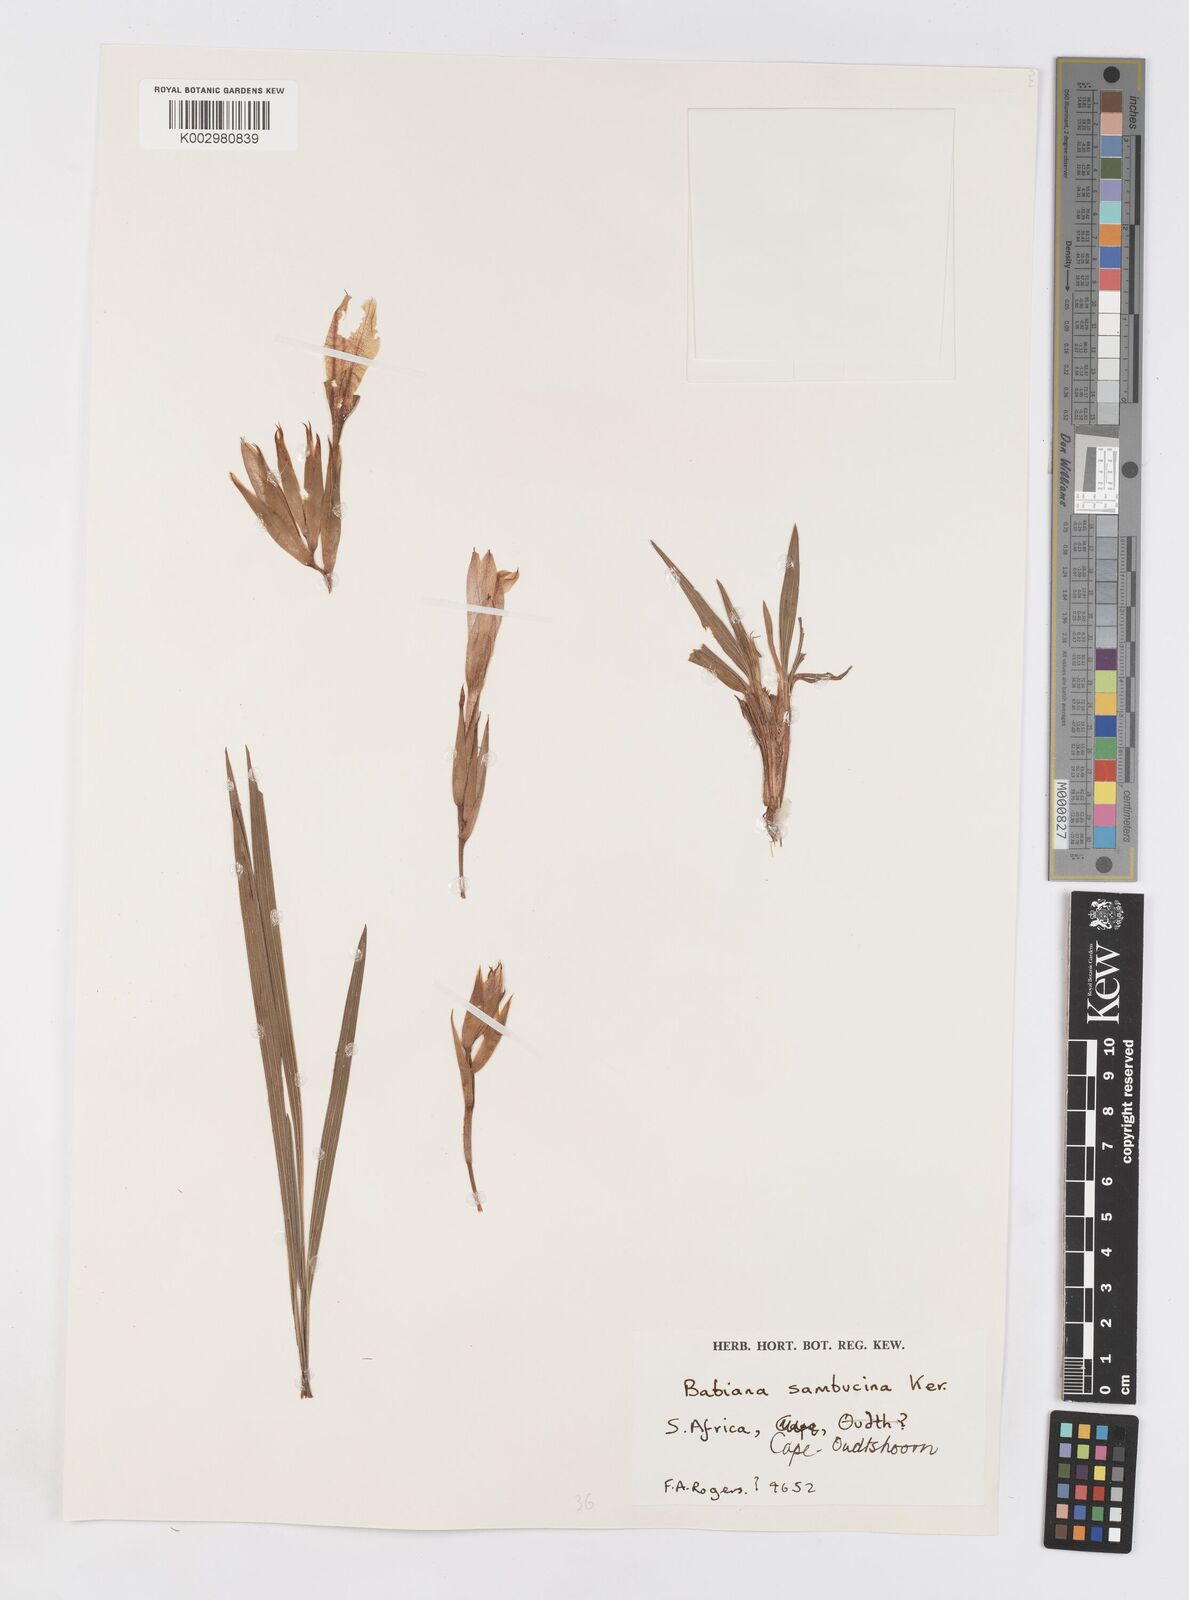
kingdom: Plantae
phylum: Tracheophyta
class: Liliopsida
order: Asparagales
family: Iridaceae
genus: Babiana
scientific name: Babiana sambucina
